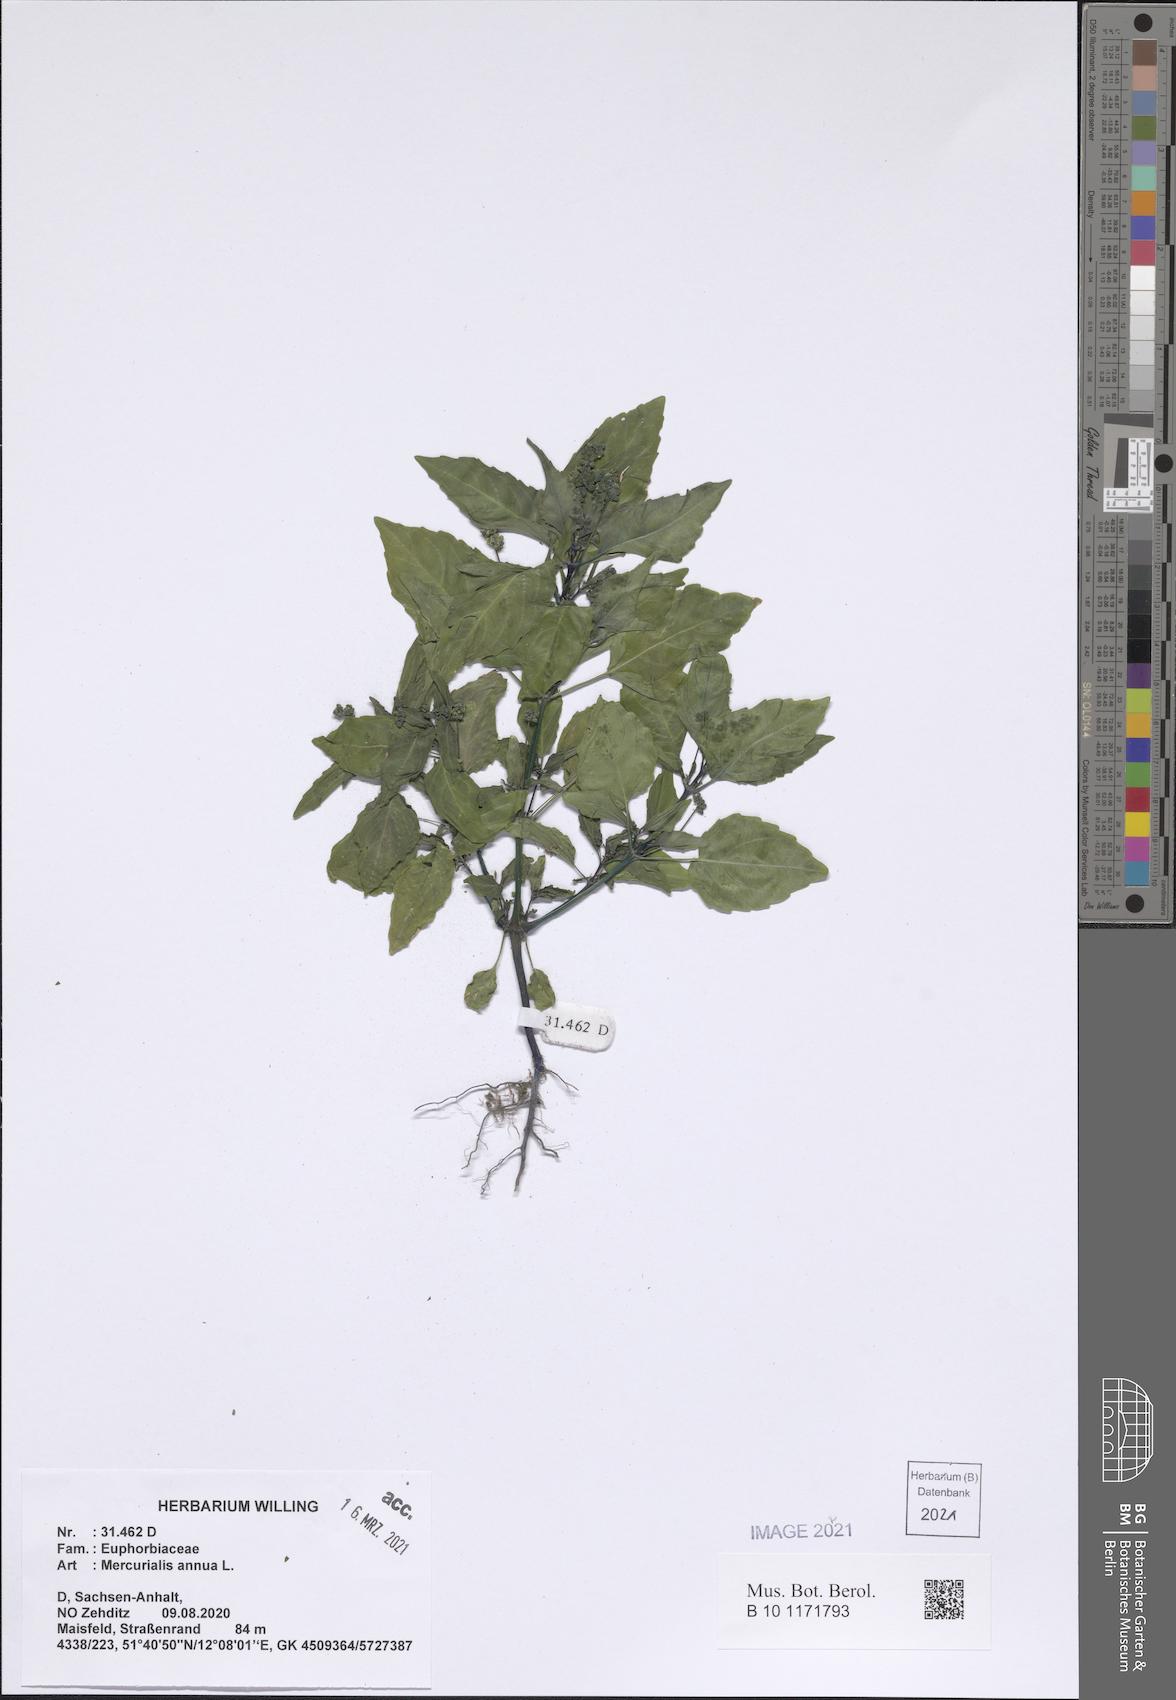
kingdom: Plantae
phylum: Tracheophyta
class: Magnoliopsida
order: Malpighiales
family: Euphorbiaceae
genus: Mercurialis
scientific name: Mercurialis annua
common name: Annual mercury
